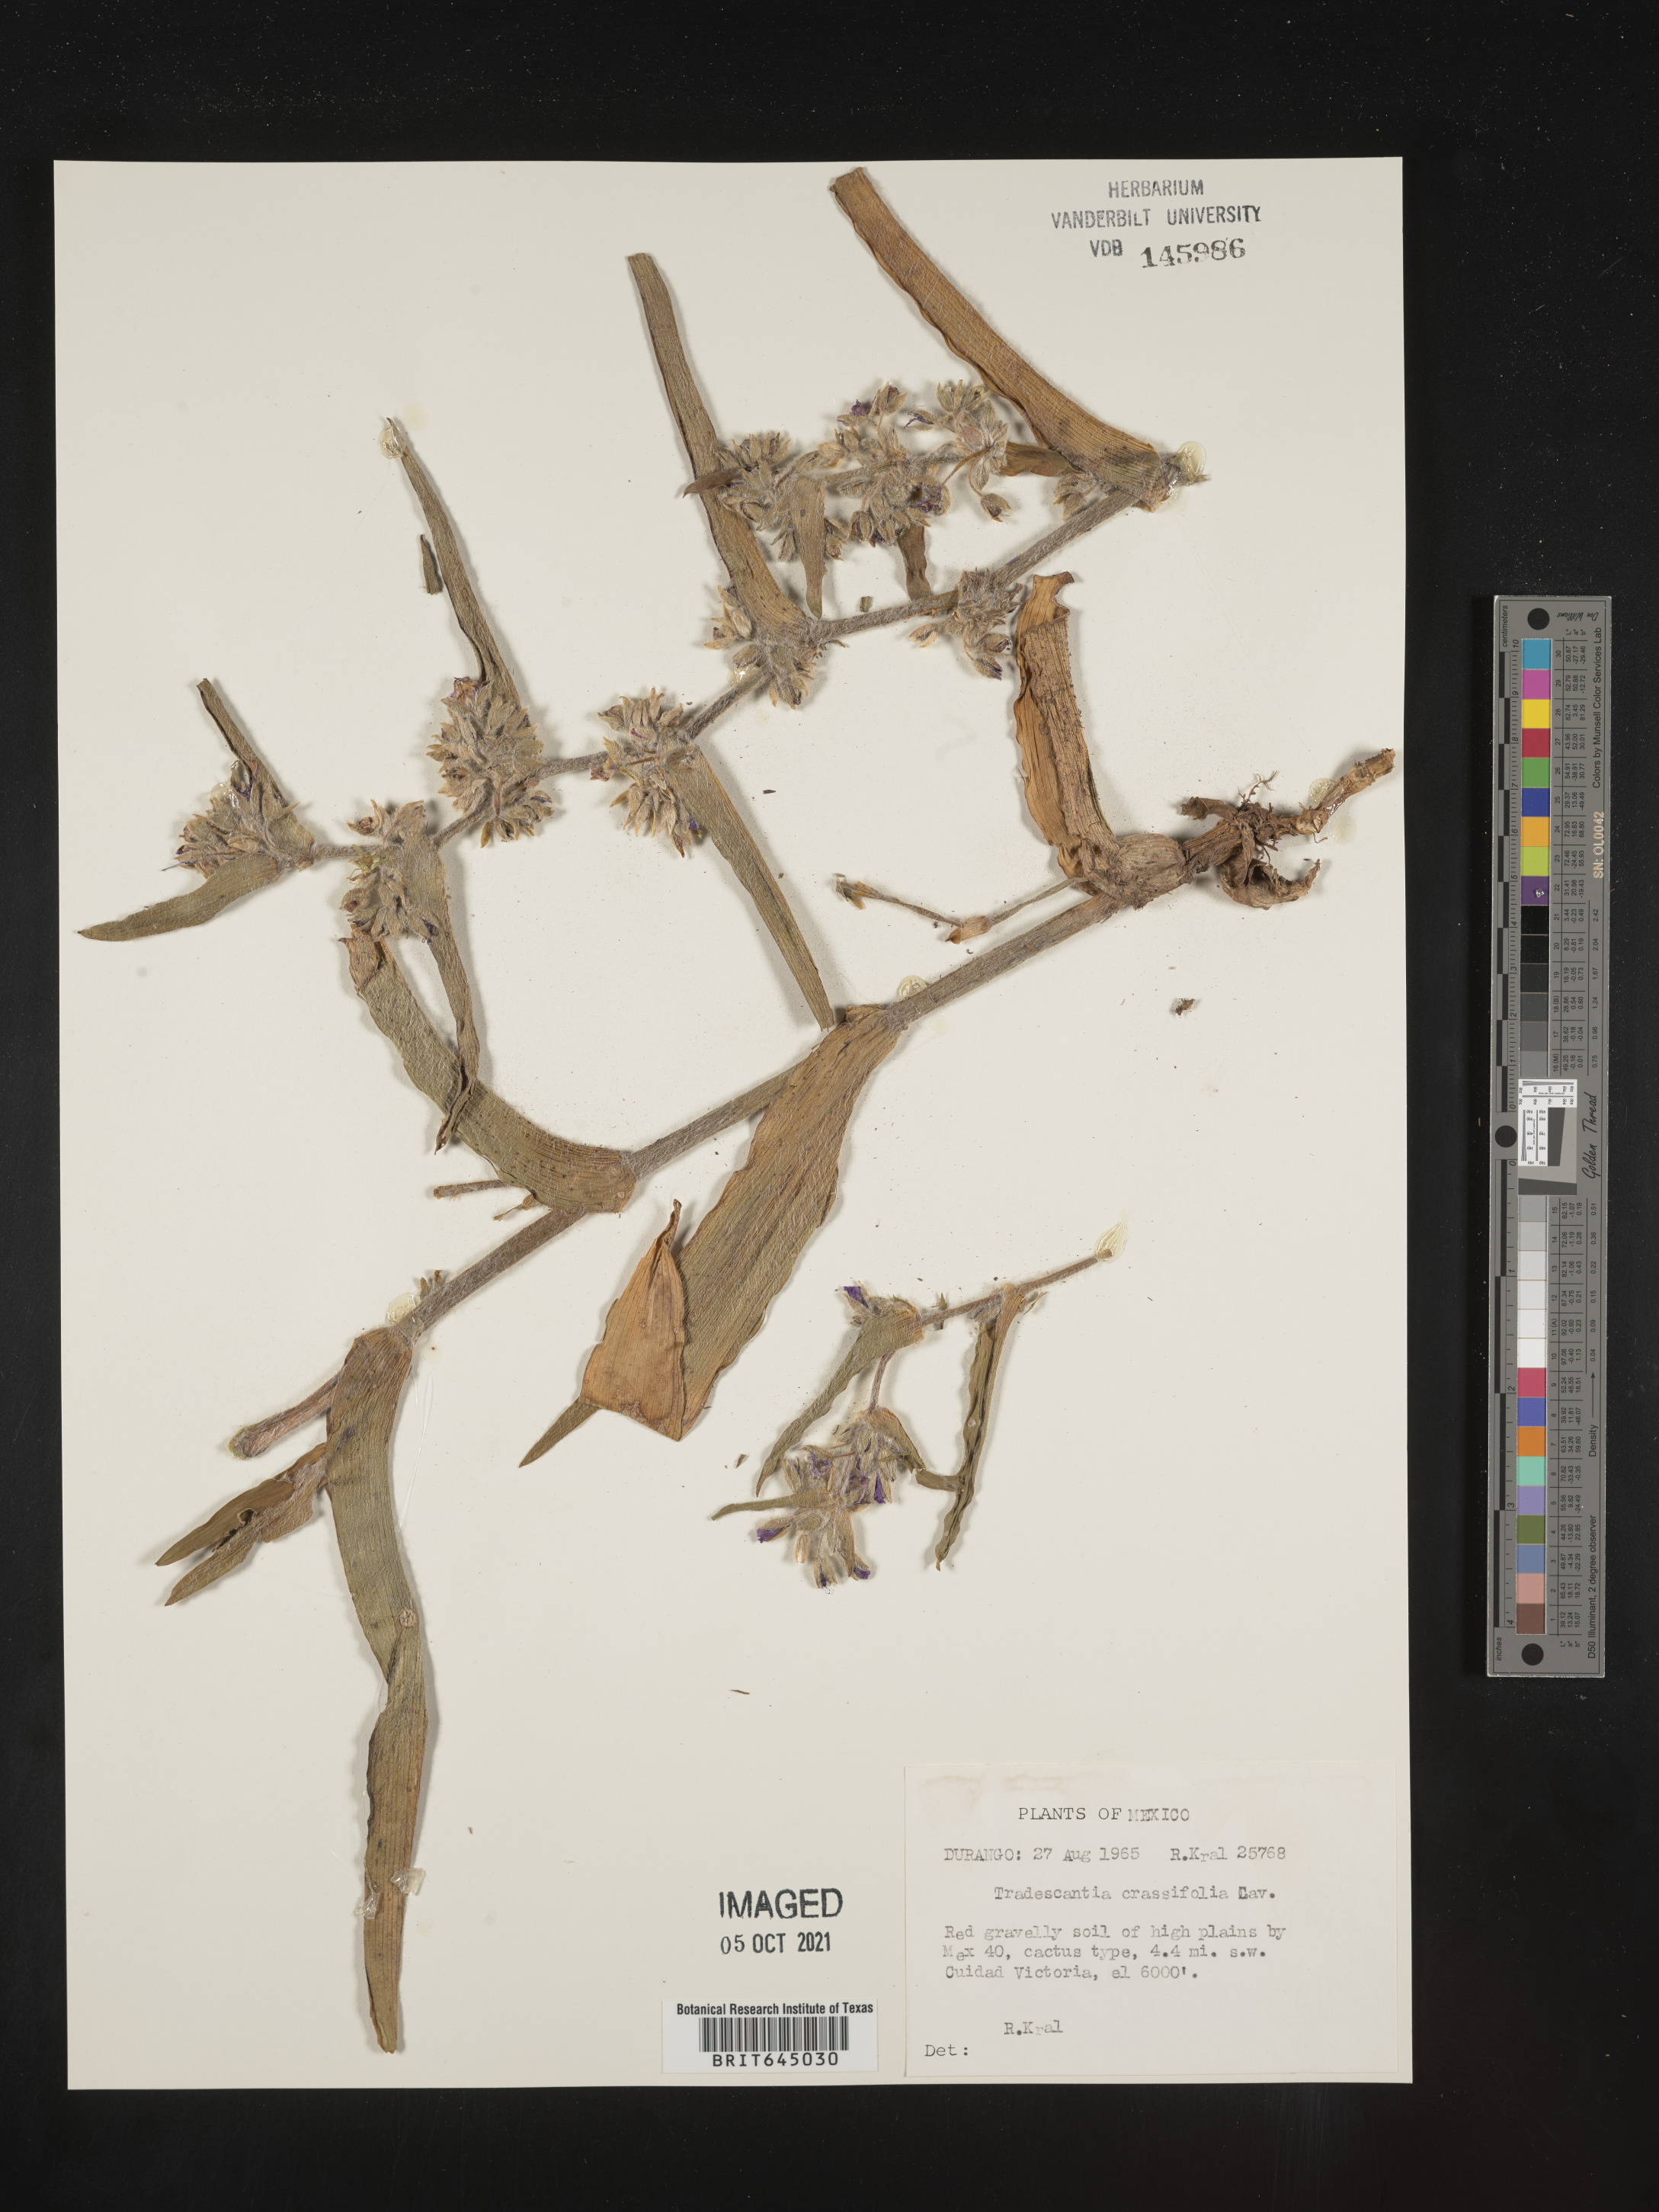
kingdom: Plantae
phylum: Tracheophyta
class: Liliopsida
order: Commelinales
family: Commelinaceae
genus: Tradescantia
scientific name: Tradescantia
